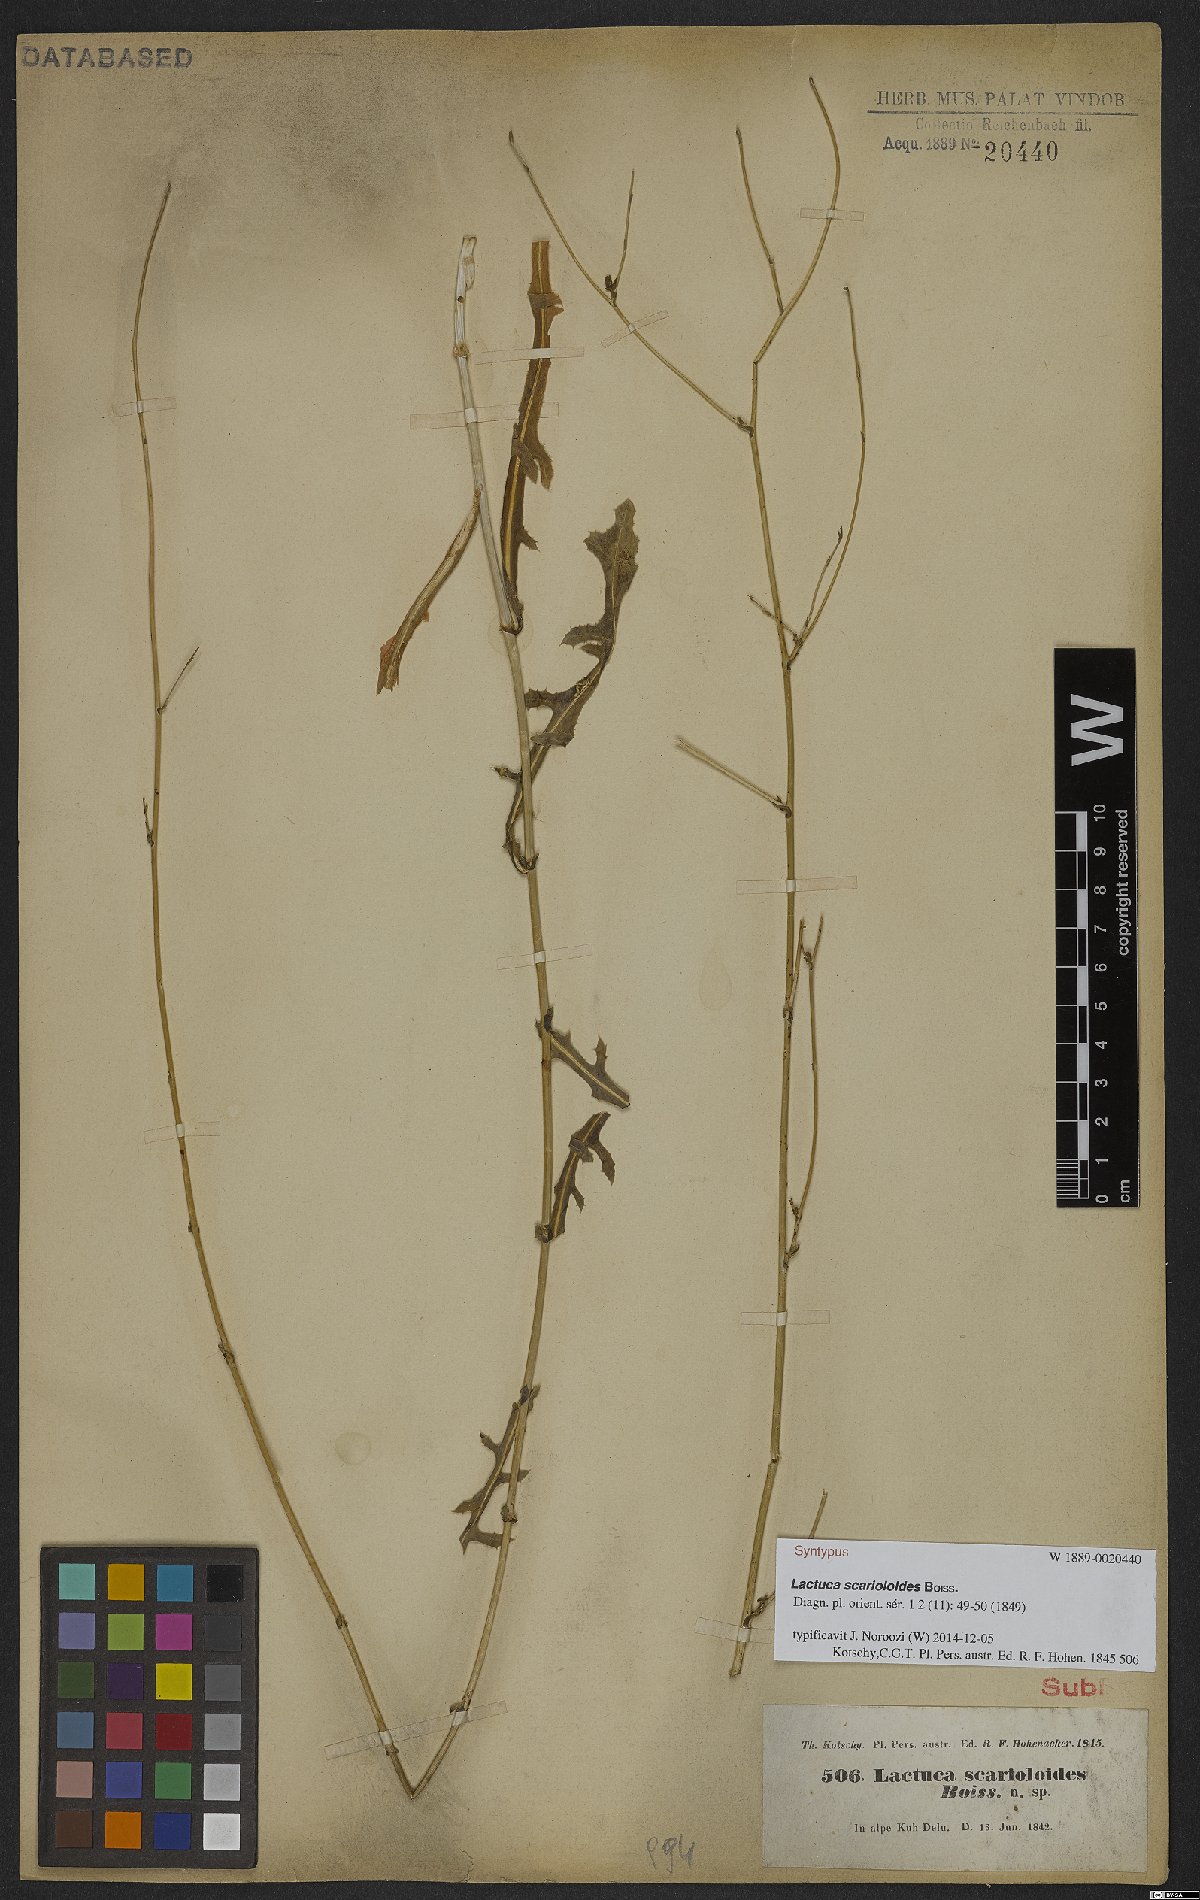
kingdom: Plantae
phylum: Tracheophyta
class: Magnoliopsida
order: Asterales
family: Asteraceae
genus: Lactuca
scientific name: Lactuca scarioloides
